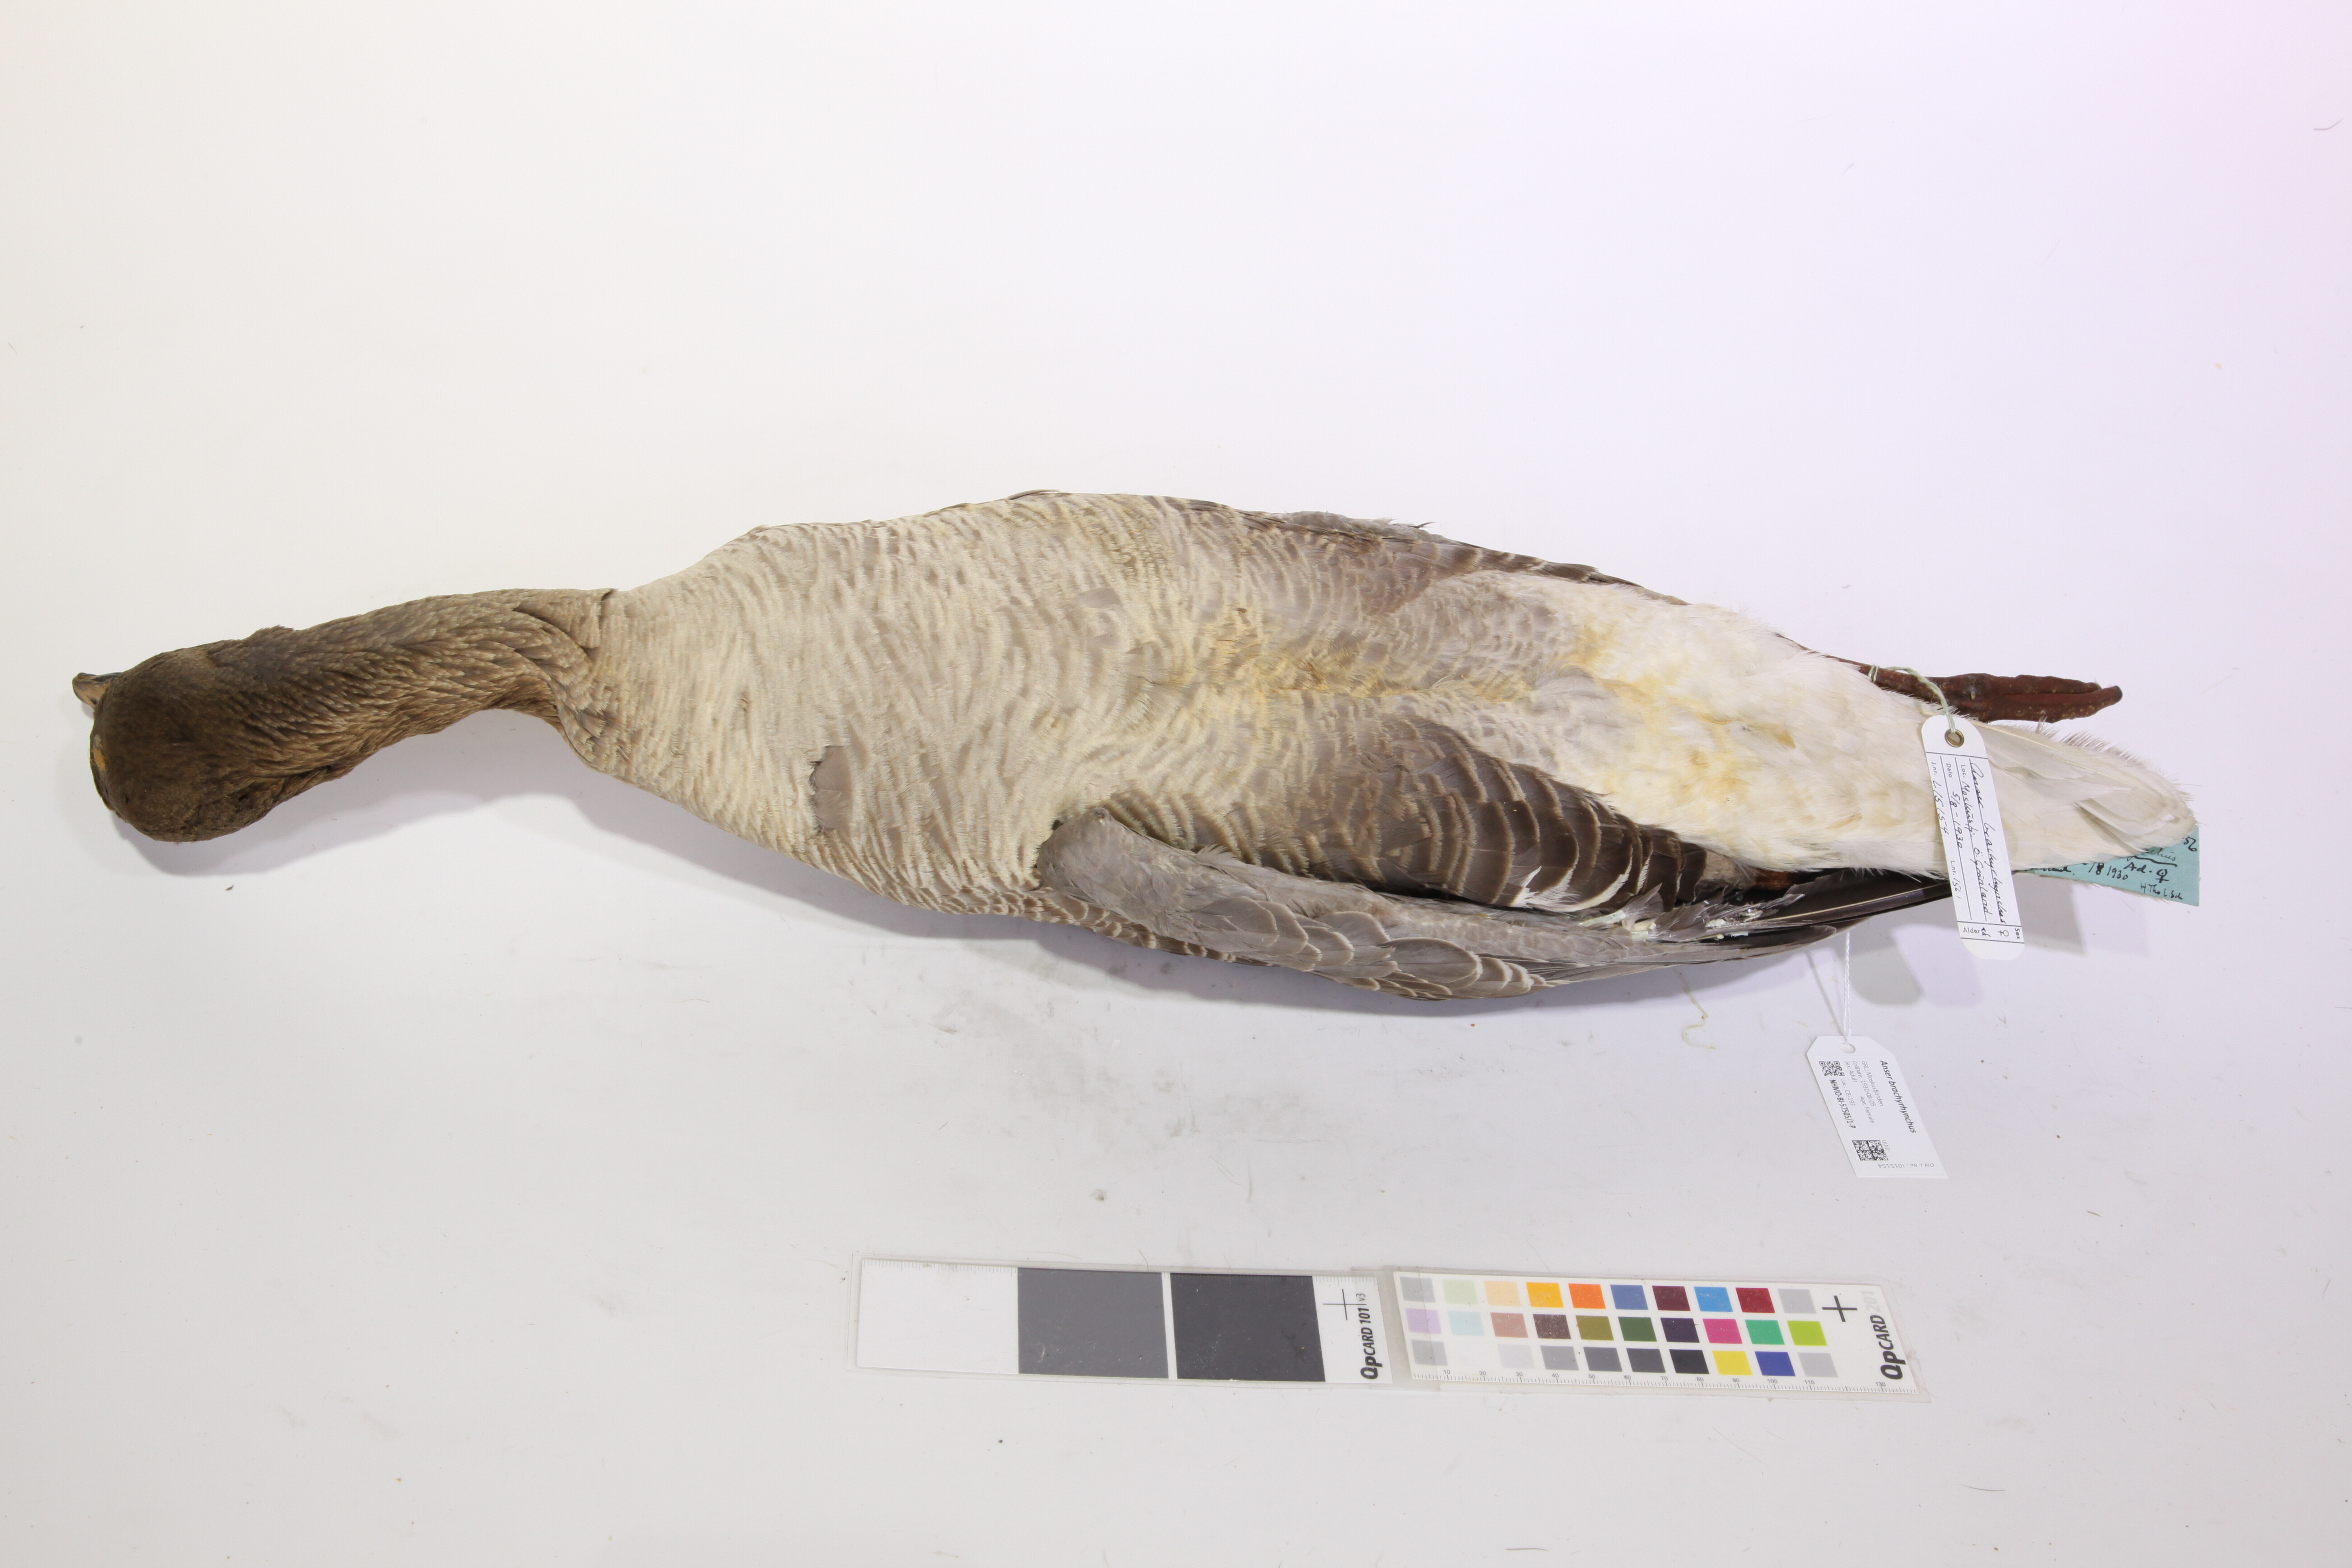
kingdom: Animalia
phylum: Chordata
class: Aves
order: Anseriformes
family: Anatidae
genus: Anser
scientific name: Anser brachyrhynchus
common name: Pink-footed goose
